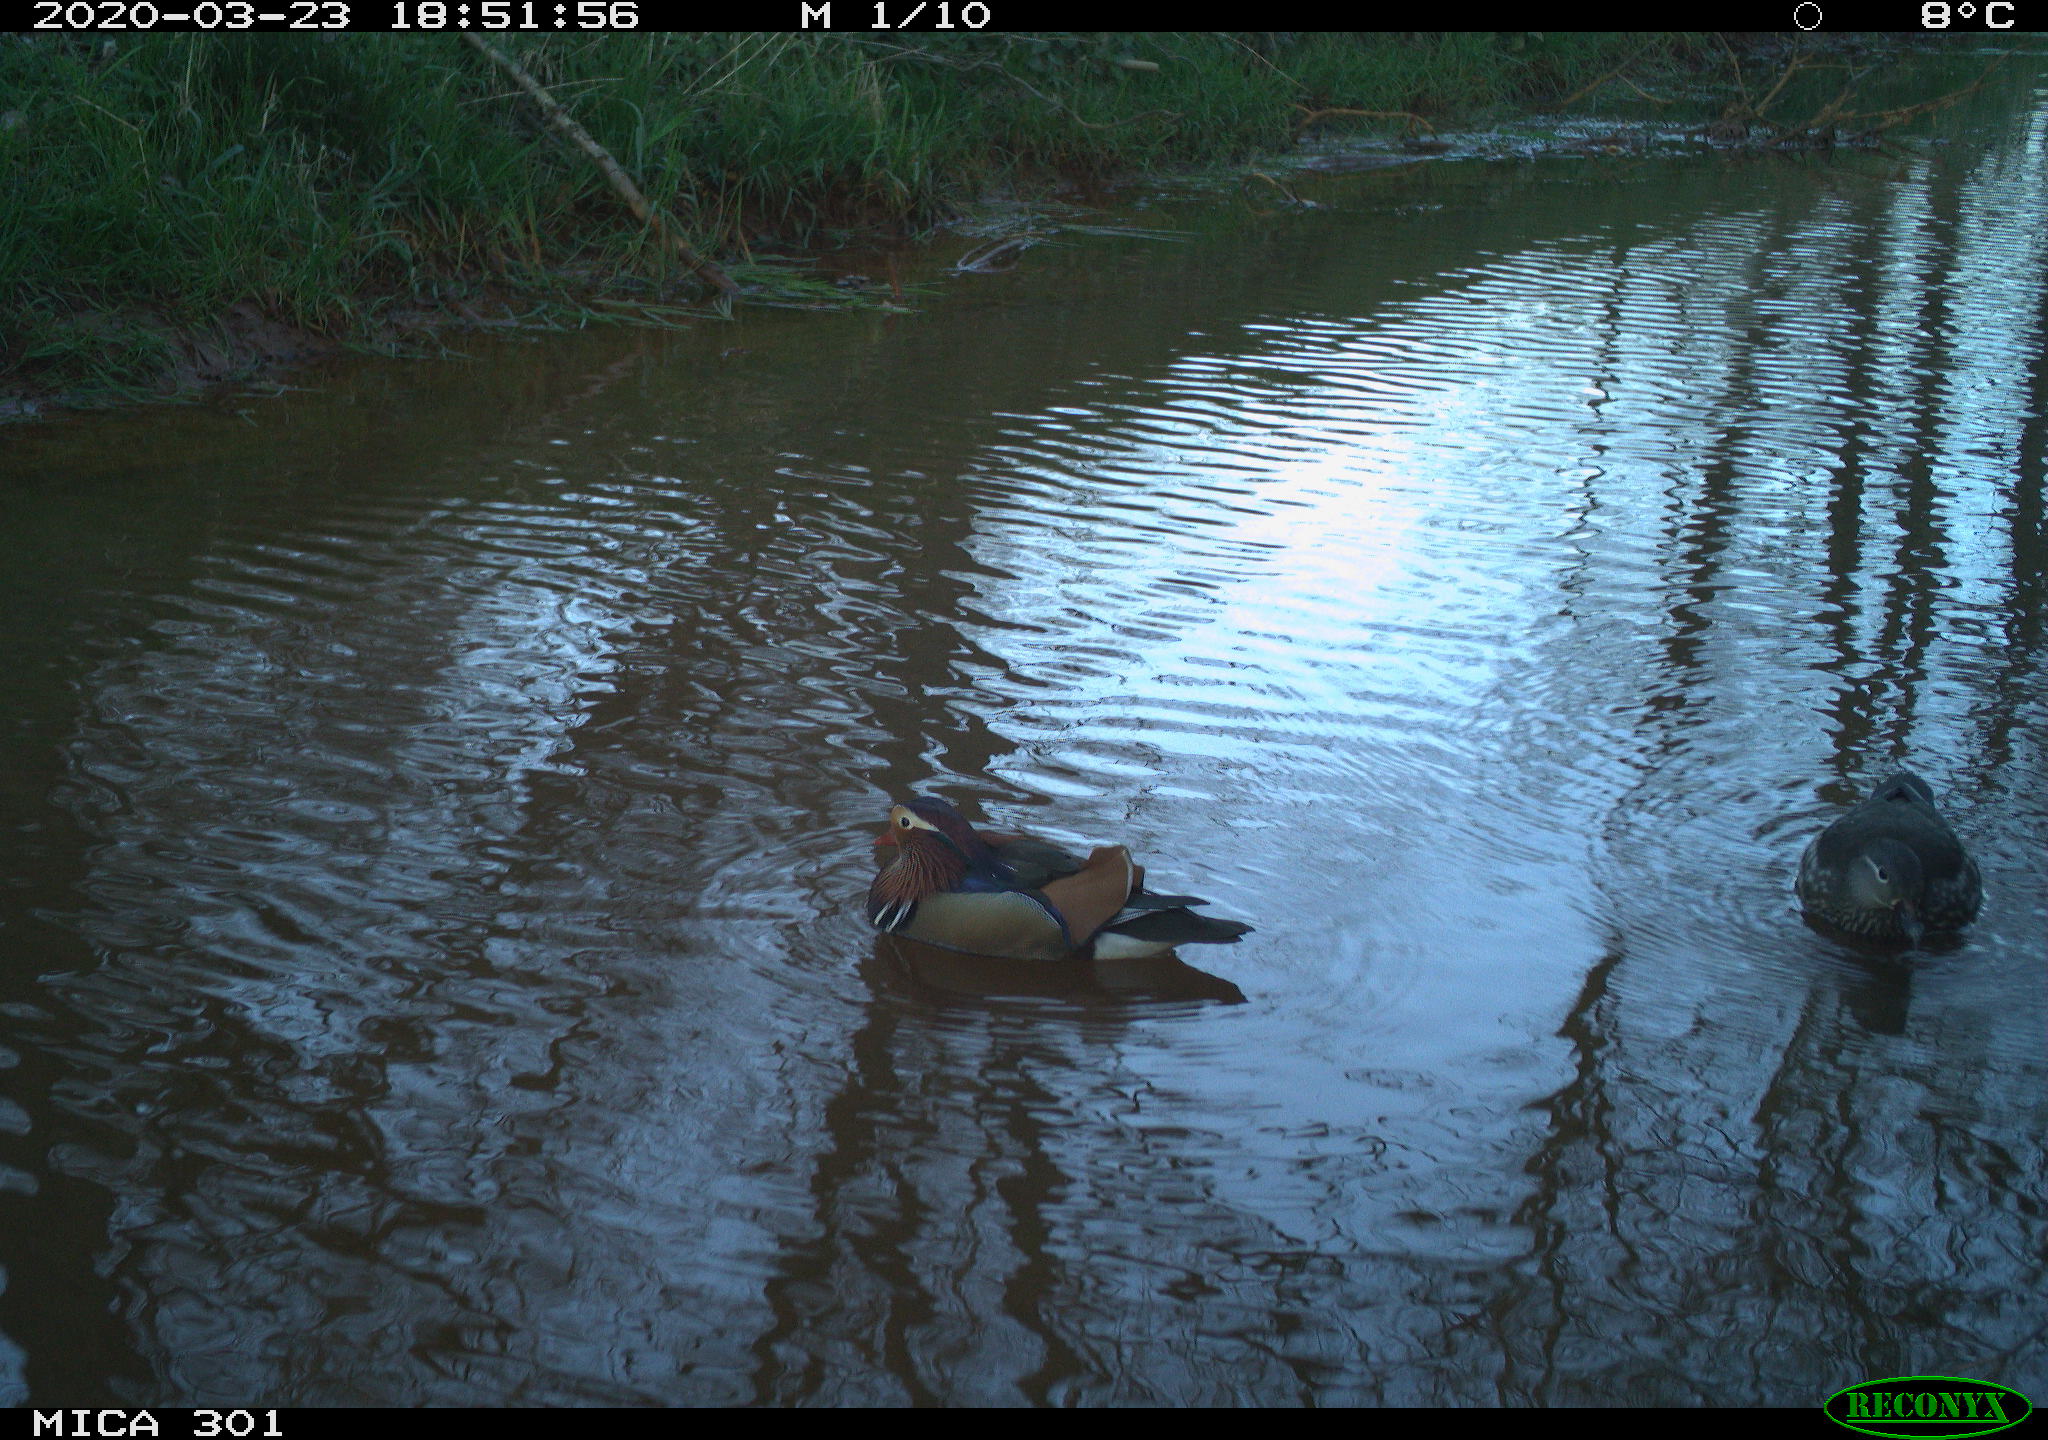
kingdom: Animalia
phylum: Chordata
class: Aves
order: Anseriformes
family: Anatidae
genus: Aix
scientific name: Aix galericulata
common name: Mandarin duck
